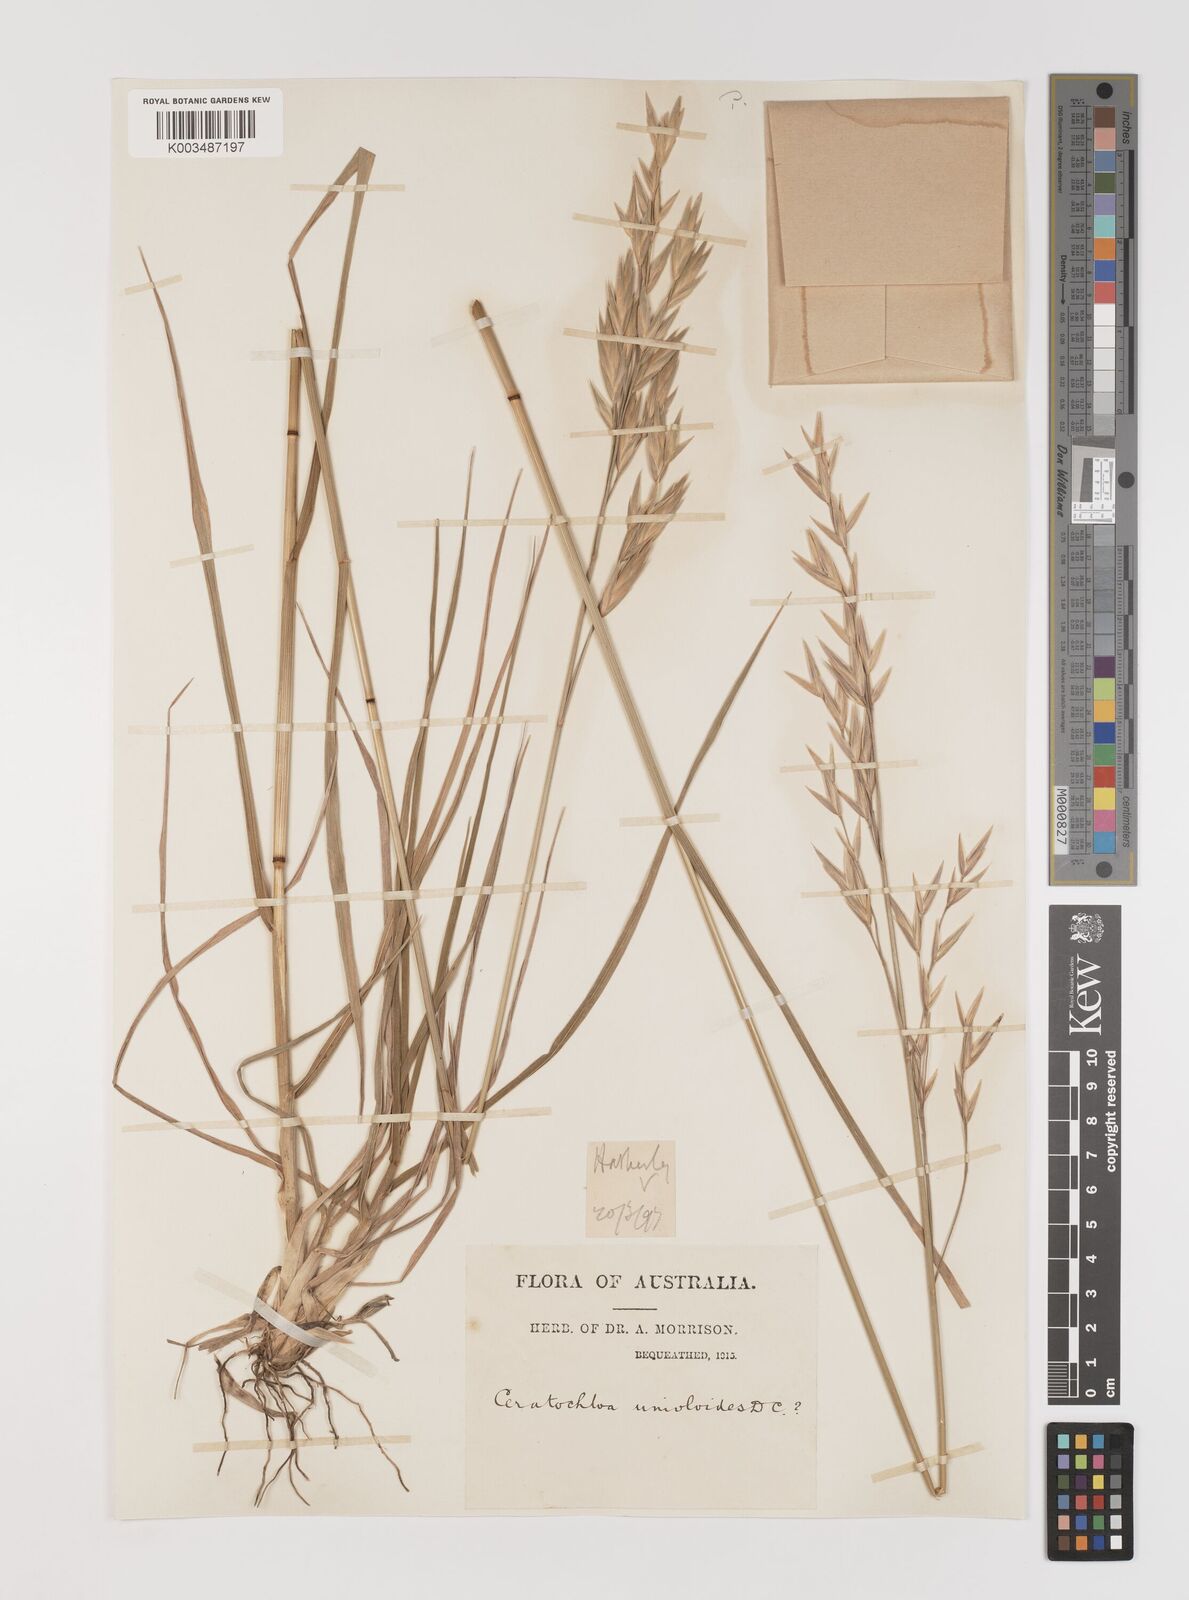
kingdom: Plantae
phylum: Tracheophyta
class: Liliopsida
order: Poales
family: Poaceae
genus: Bromus
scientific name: Bromus catharticus
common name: Rescuegrass
